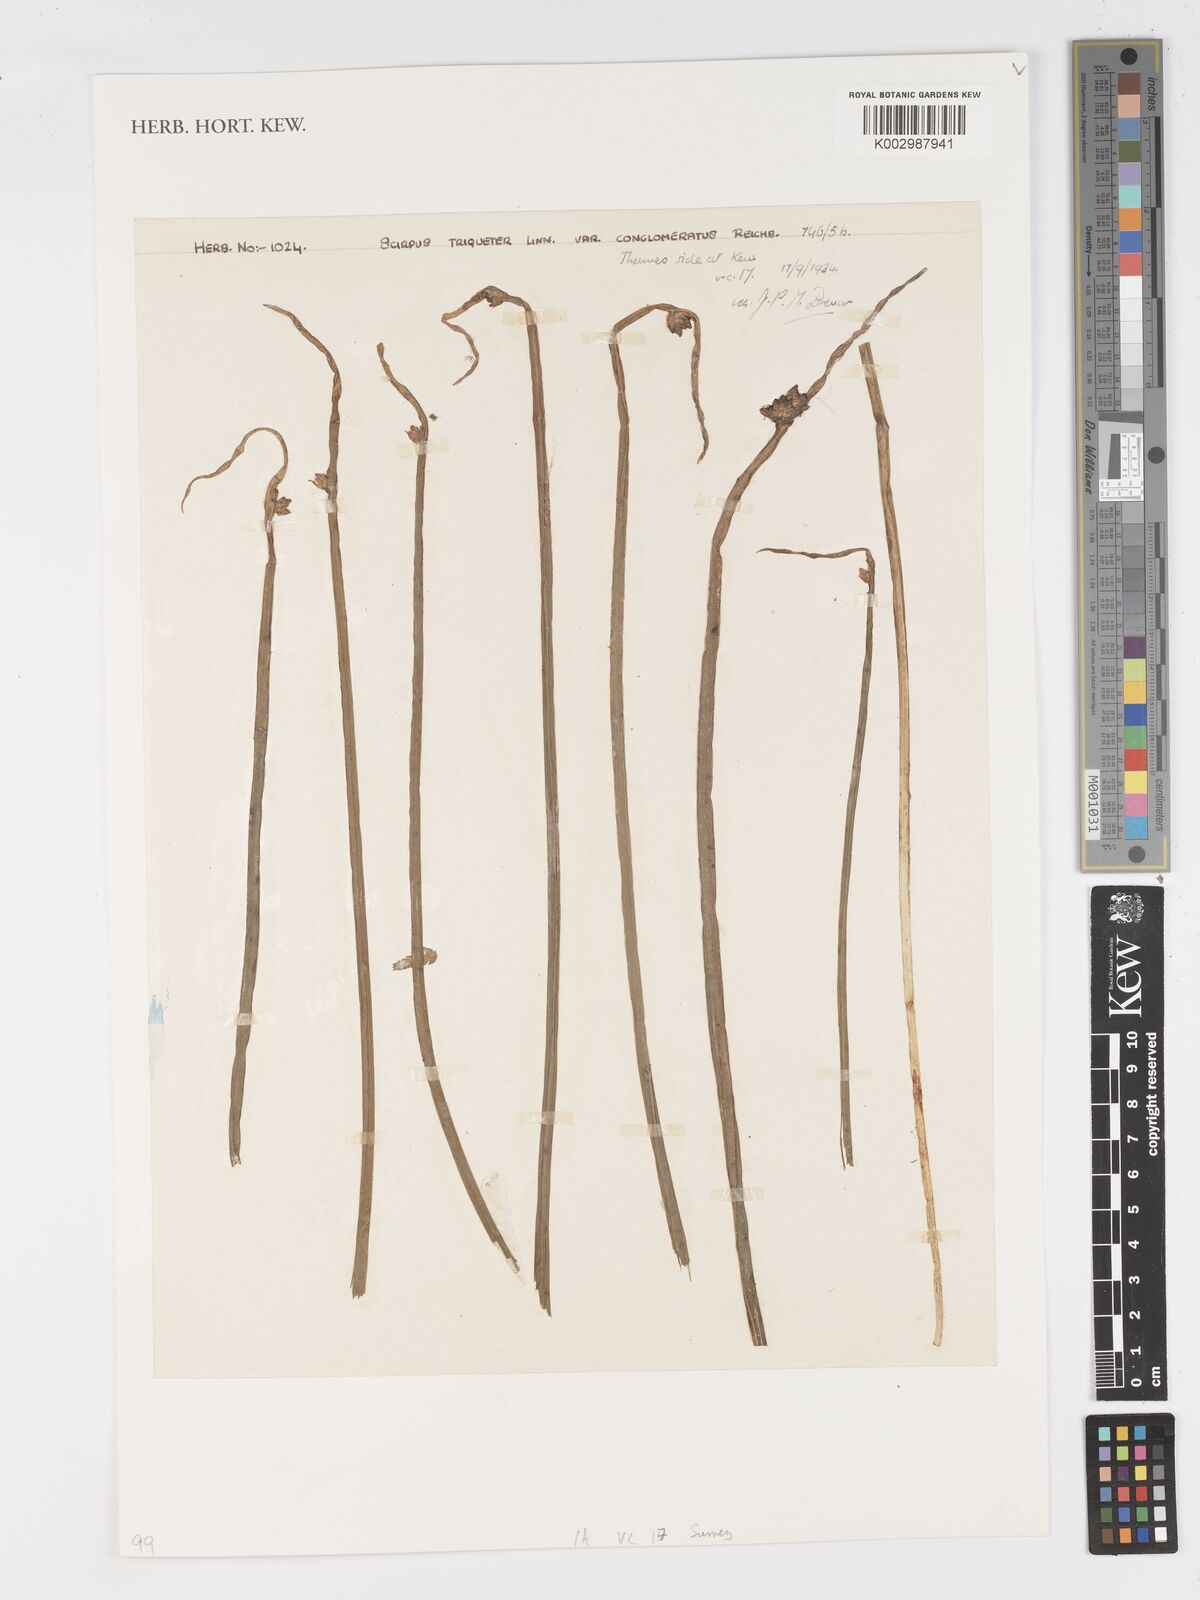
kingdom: Plantae
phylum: Tracheophyta
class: Liliopsida
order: Poales
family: Cyperaceae
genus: Schoenoplectus
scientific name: Schoenoplectus triqueter
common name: Triangular club-rush
